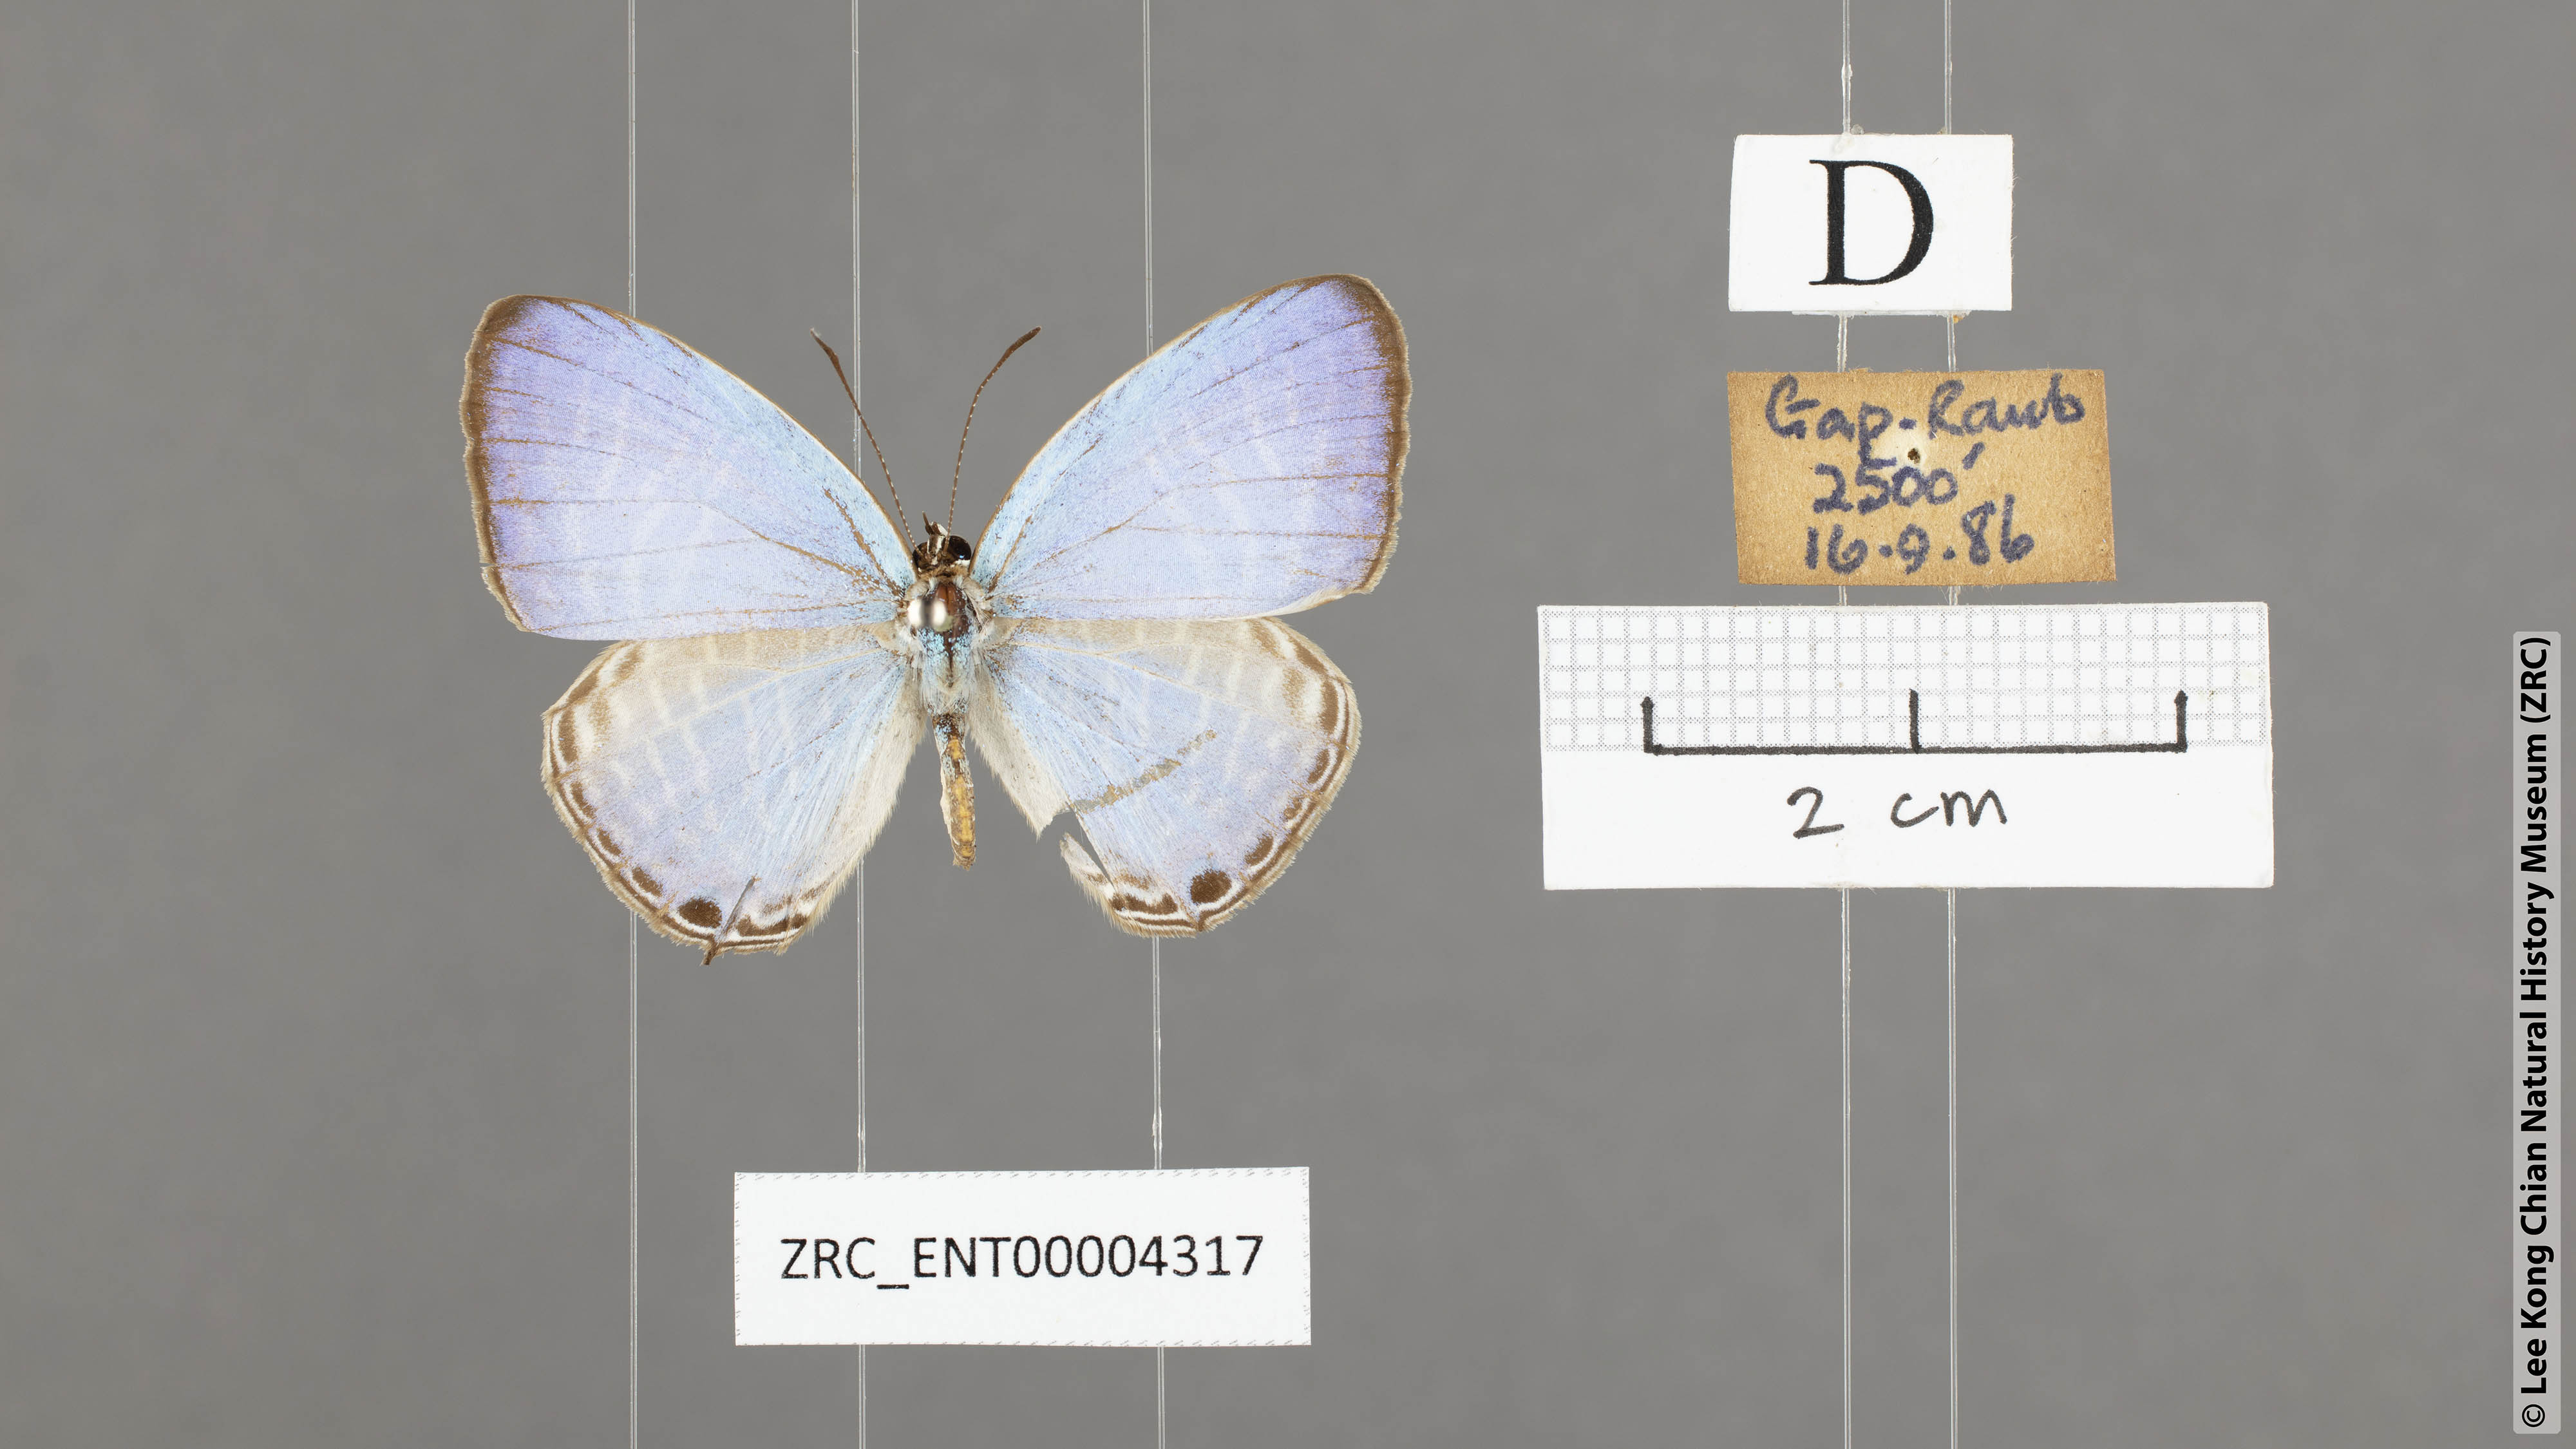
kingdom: Animalia
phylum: Arthropoda
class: Insecta
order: Lepidoptera
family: Lycaenidae
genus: Jamides
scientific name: Jamides alecto
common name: Metallic cerulean
